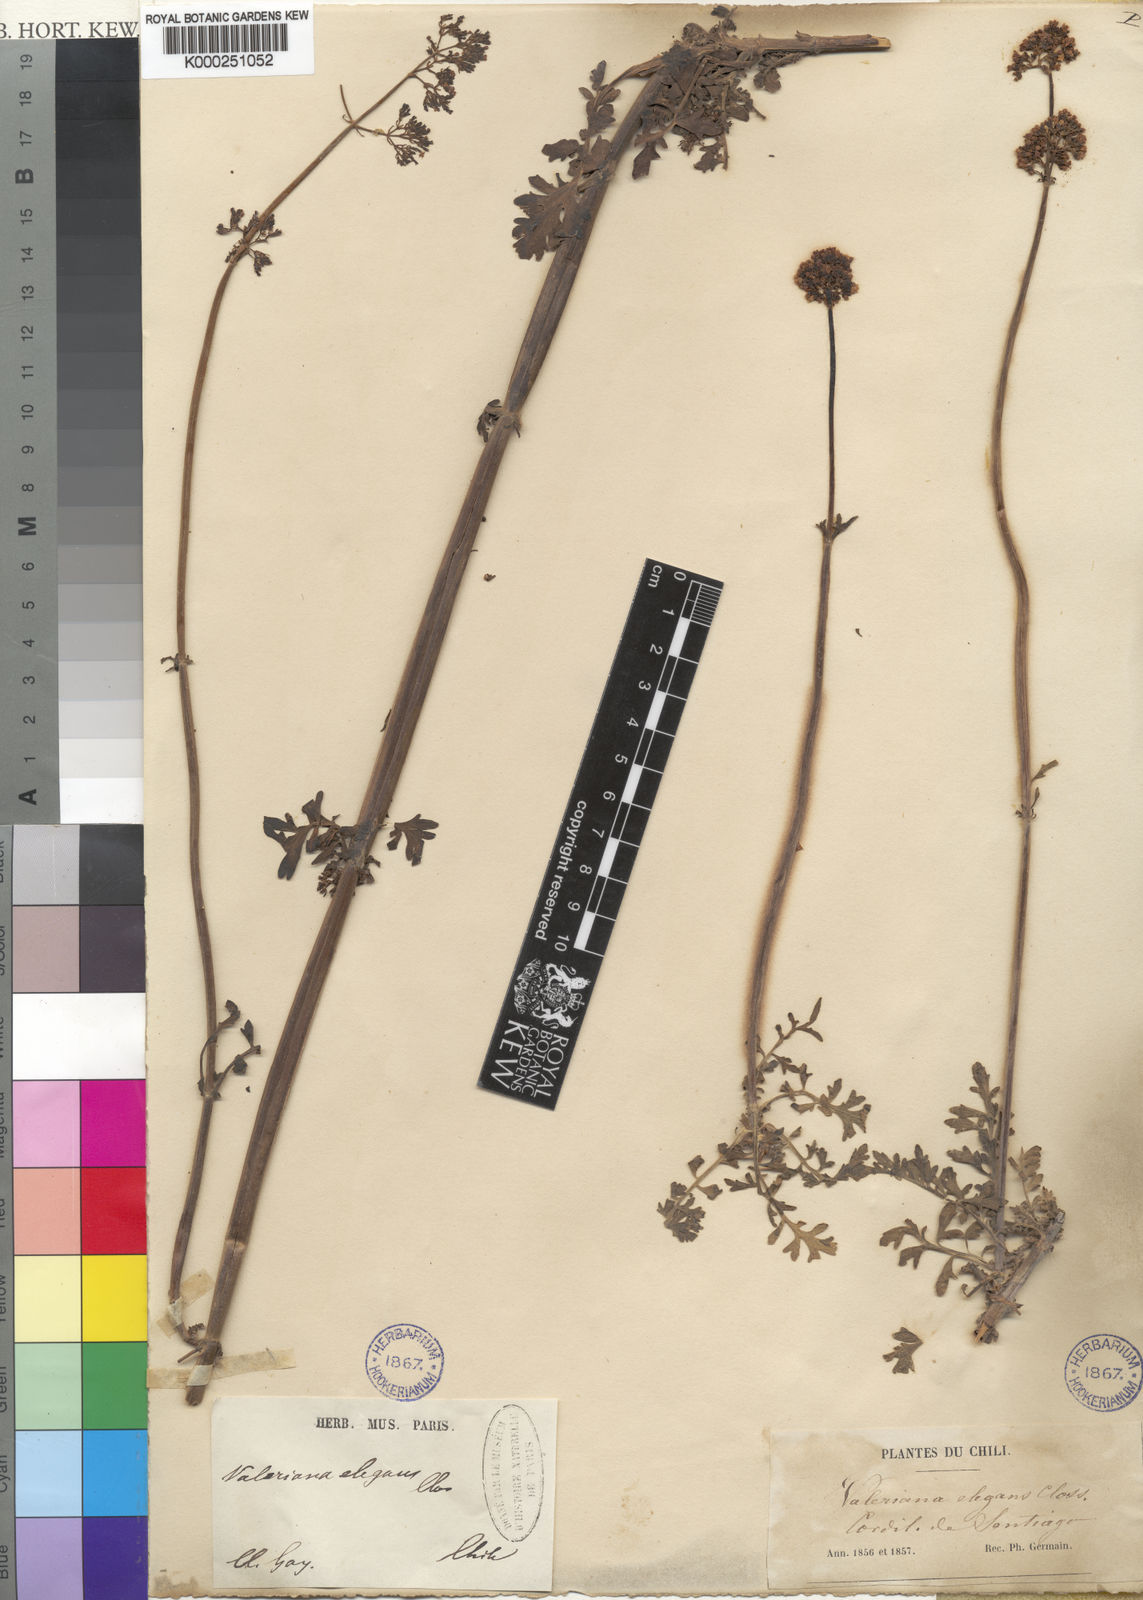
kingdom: Plantae
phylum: Tracheophyta
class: Magnoliopsida
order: Dipsacales
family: Caprifoliaceae
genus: Valeriana
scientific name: Valeriana stricta
